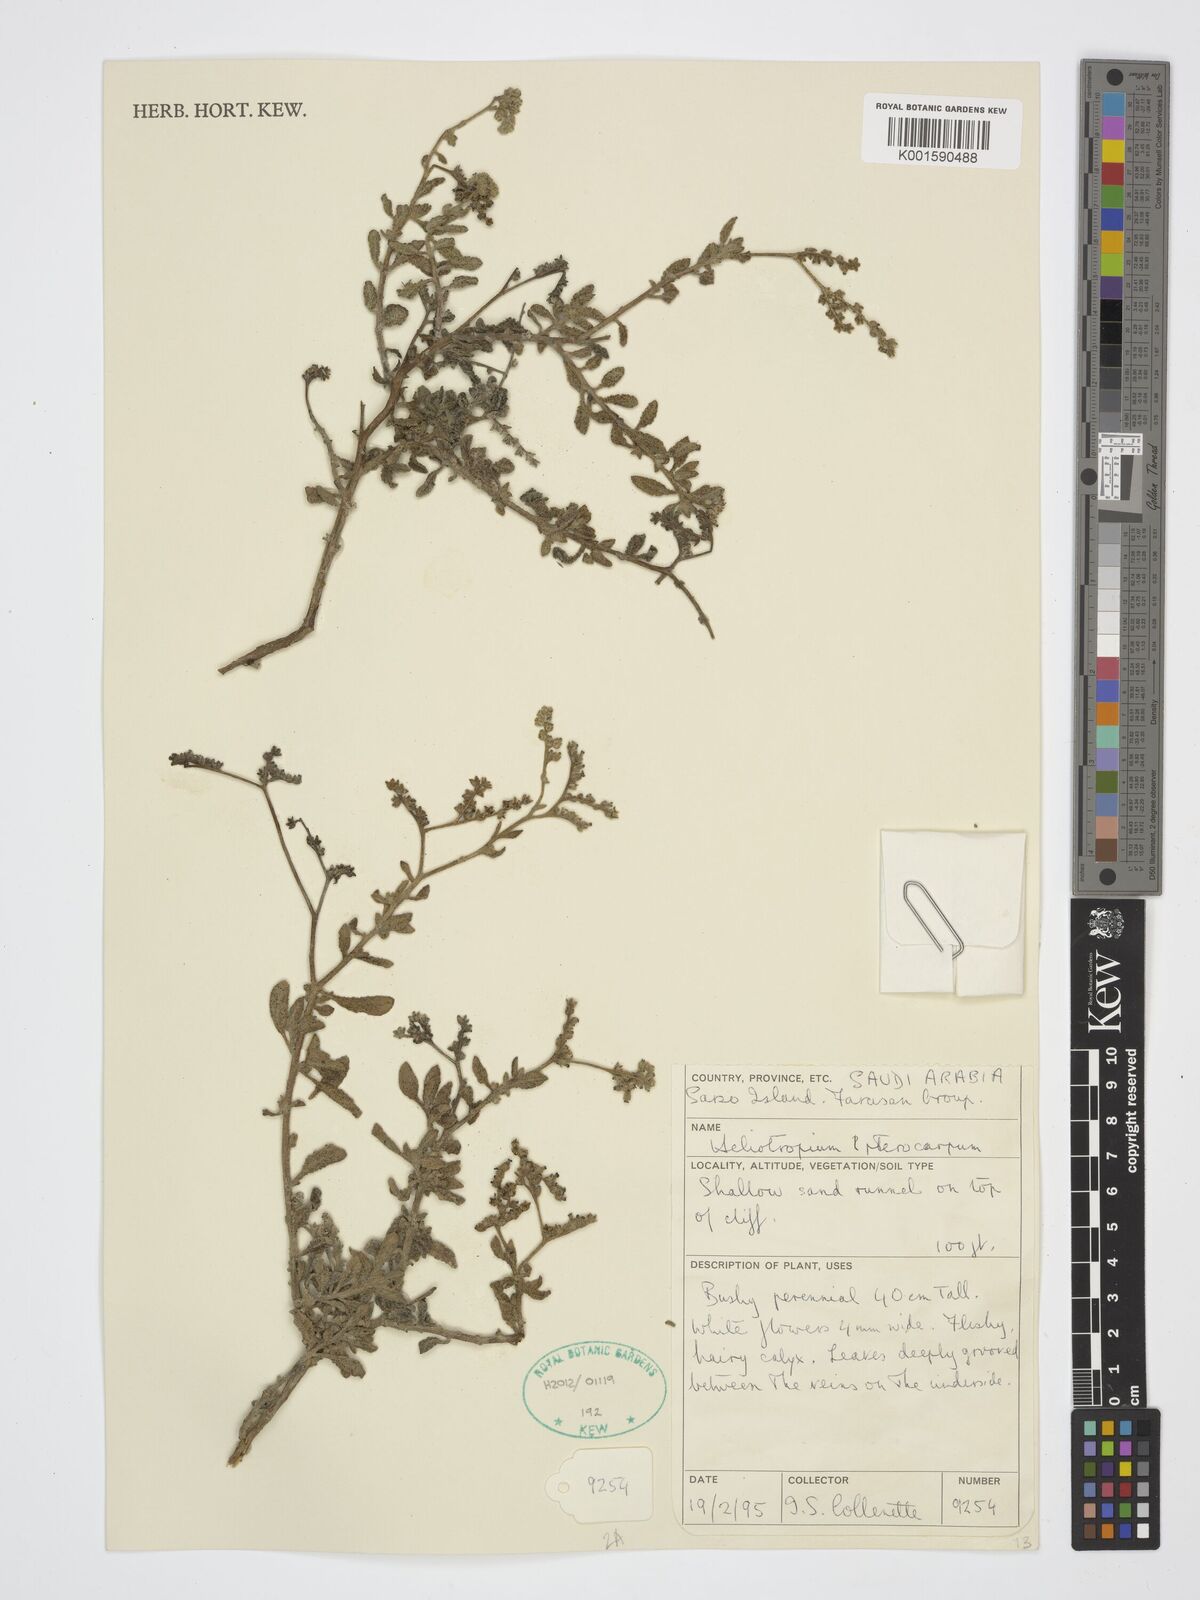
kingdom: Plantae
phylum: Tracheophyta
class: Magnoliopsida
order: Boraginales
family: Heliotropiaceae
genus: Heliotropium
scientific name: Heliotropium pterocarpum
